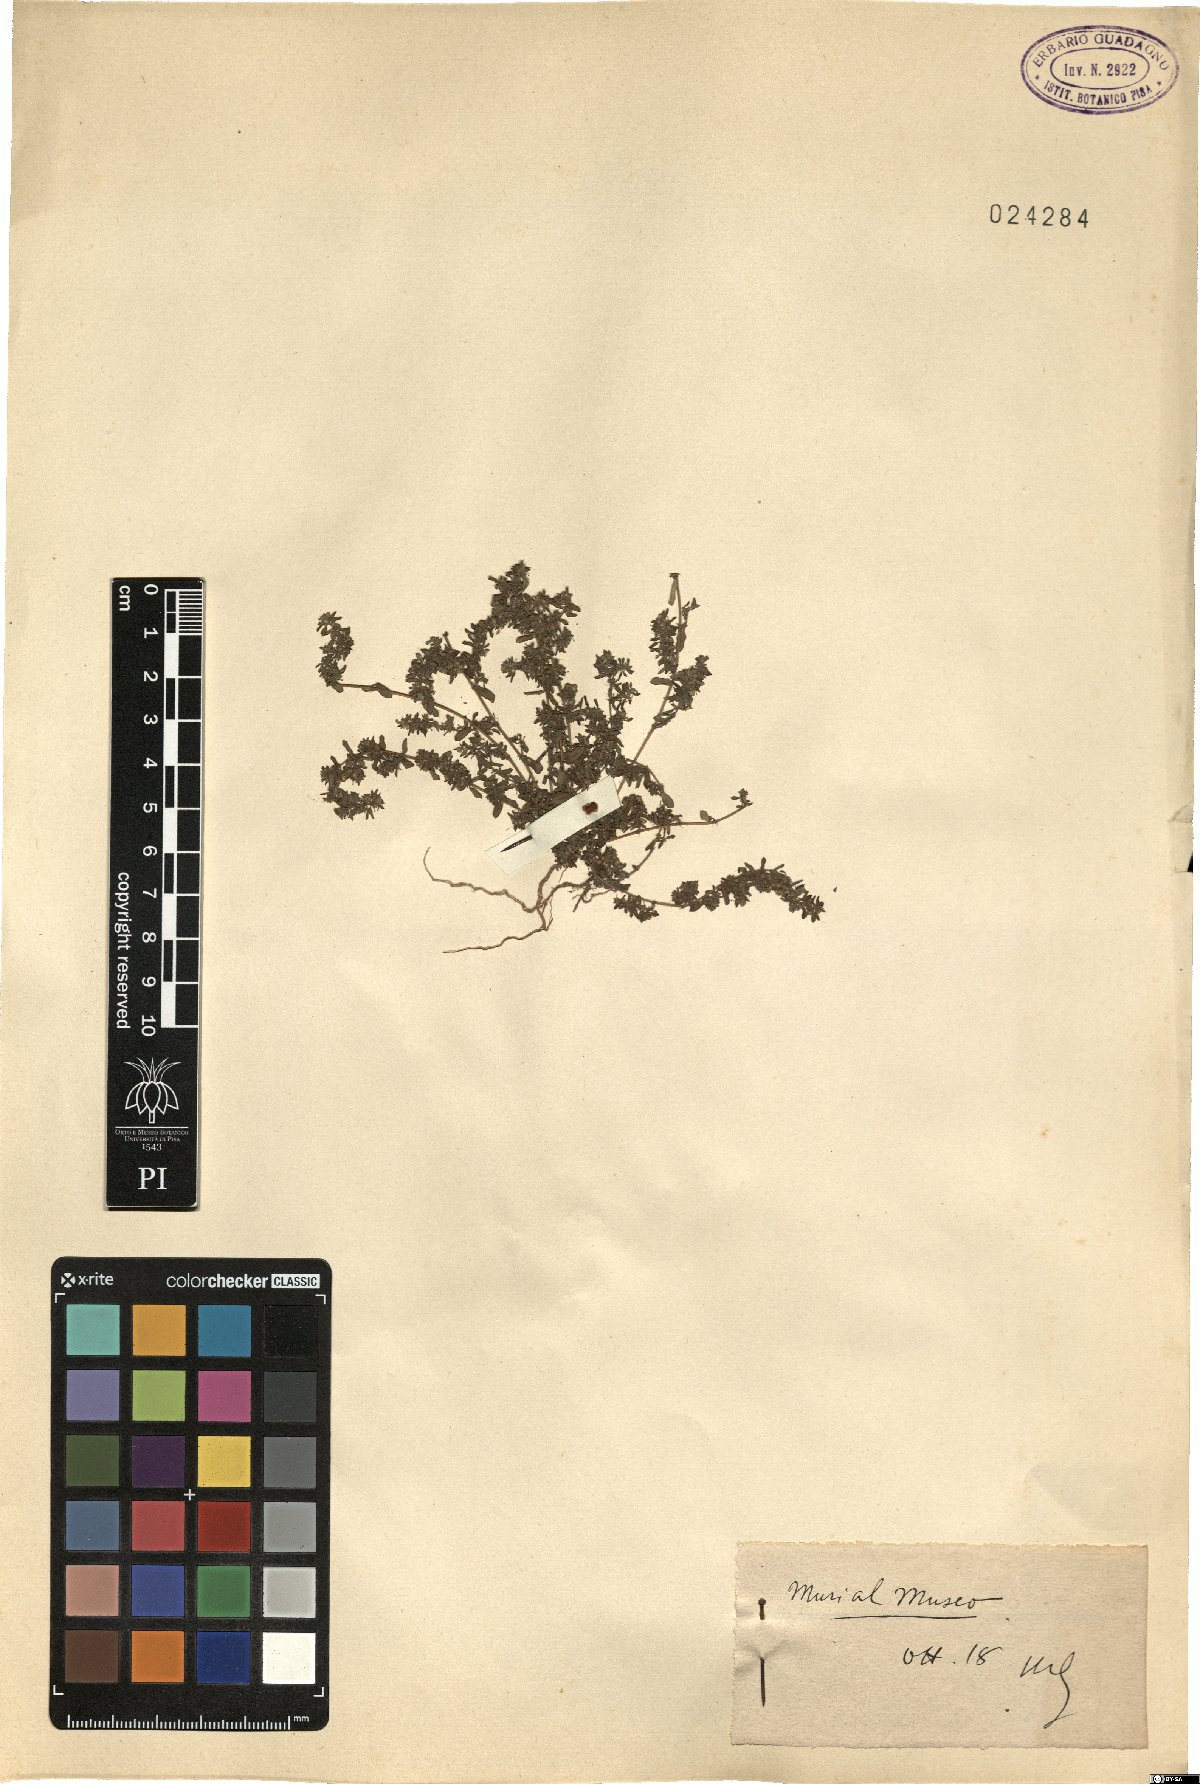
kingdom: Plantae
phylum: Tracheophyta
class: Magnoliopsida
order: Malpighiales
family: Euphorbiaceae
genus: Euphorbia
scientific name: Euphorbia
